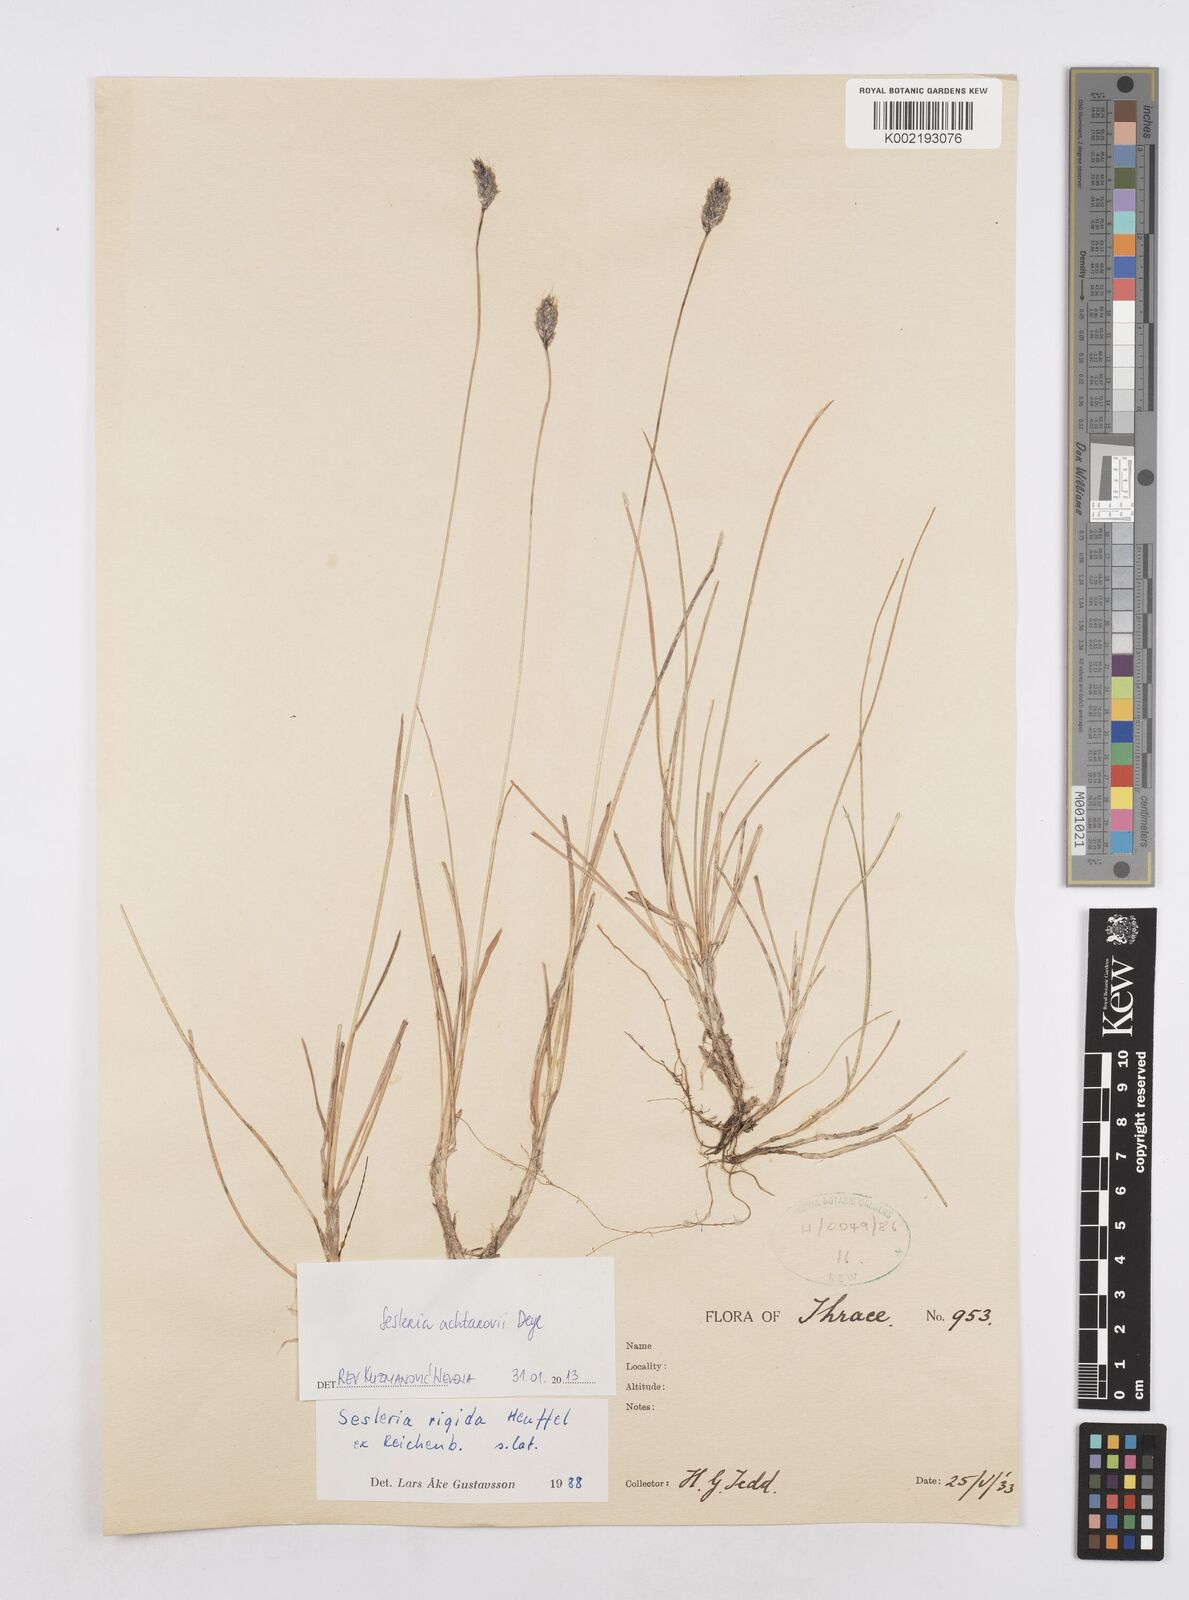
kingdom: Plantae
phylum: Tracheophyta
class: Liliopsida
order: Poales
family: Poaceae
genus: Sesleria
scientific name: Sesleria achtarovii
